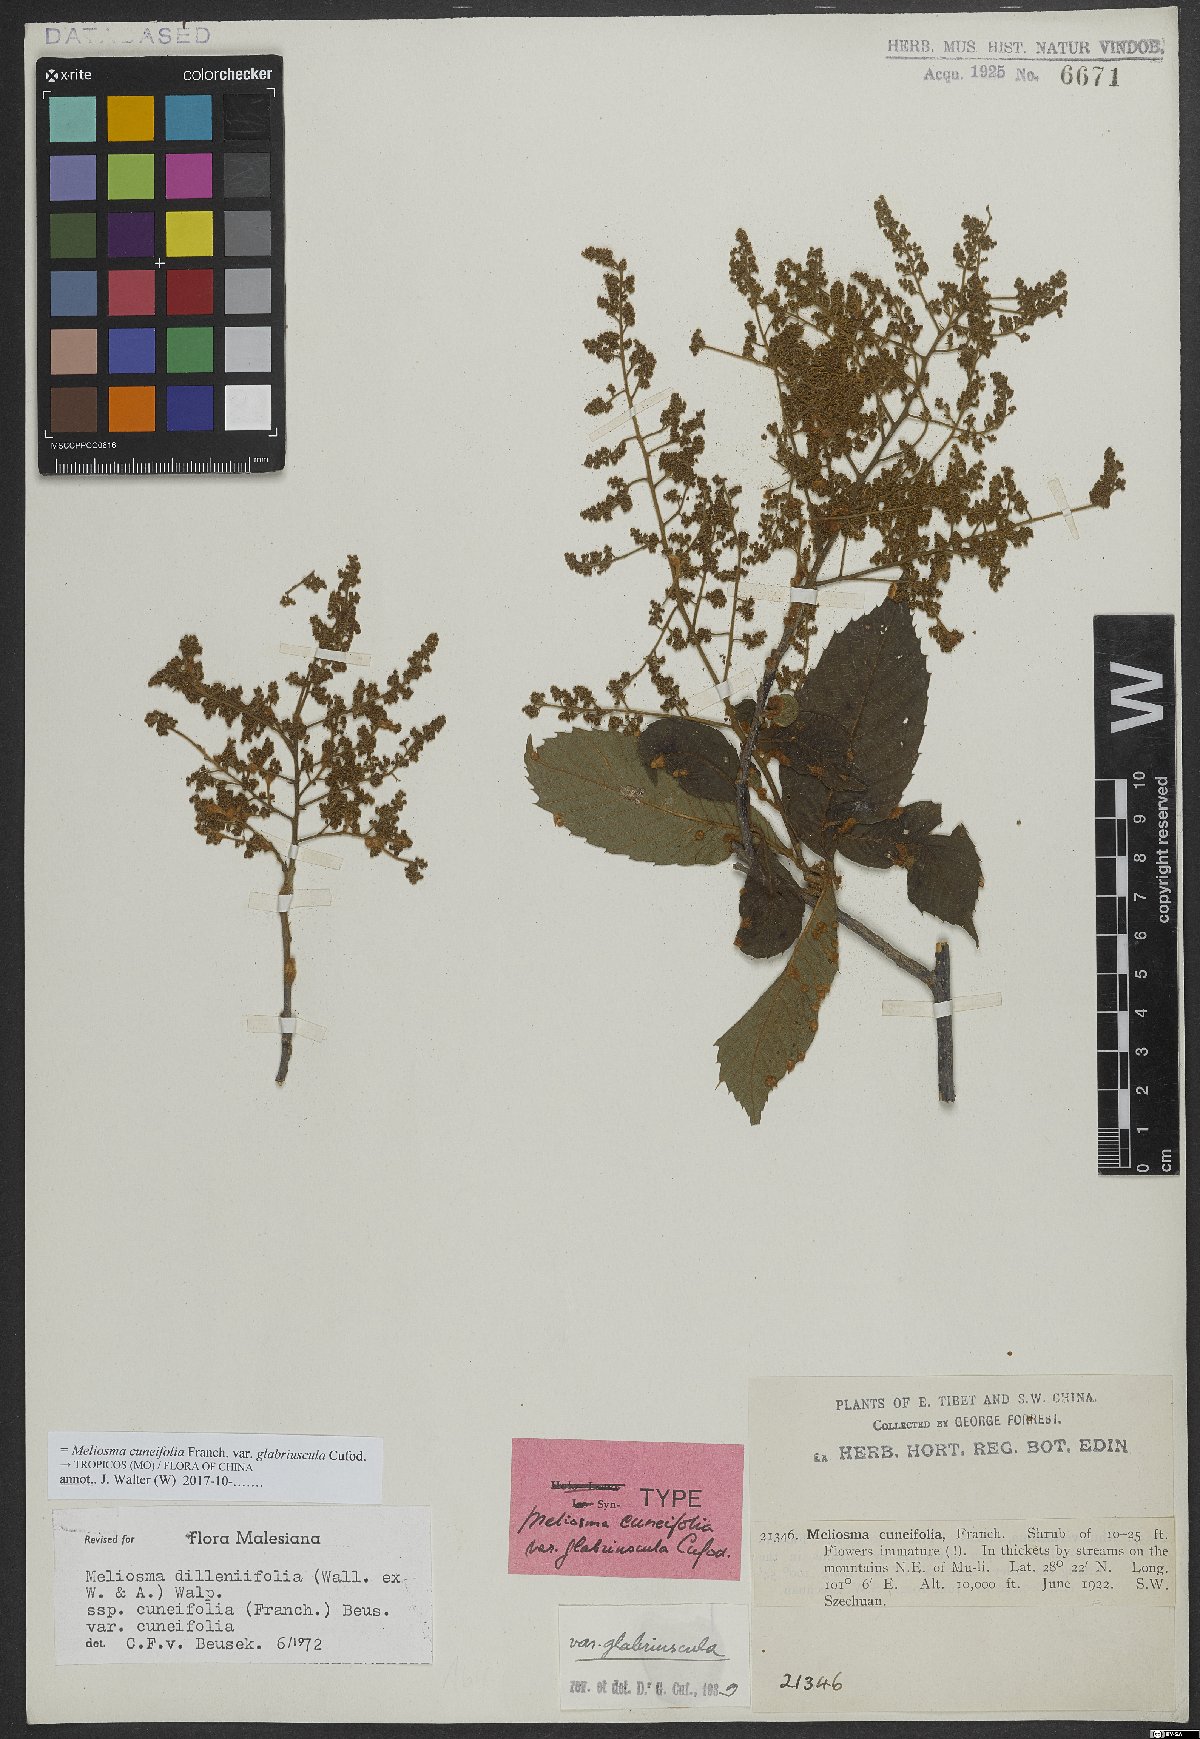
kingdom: Plantae
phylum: Tracheophyta
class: Magnoliopsida
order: Proteales
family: Sabiaceae
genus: Meliosma
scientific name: Meliosma cuneifolia
